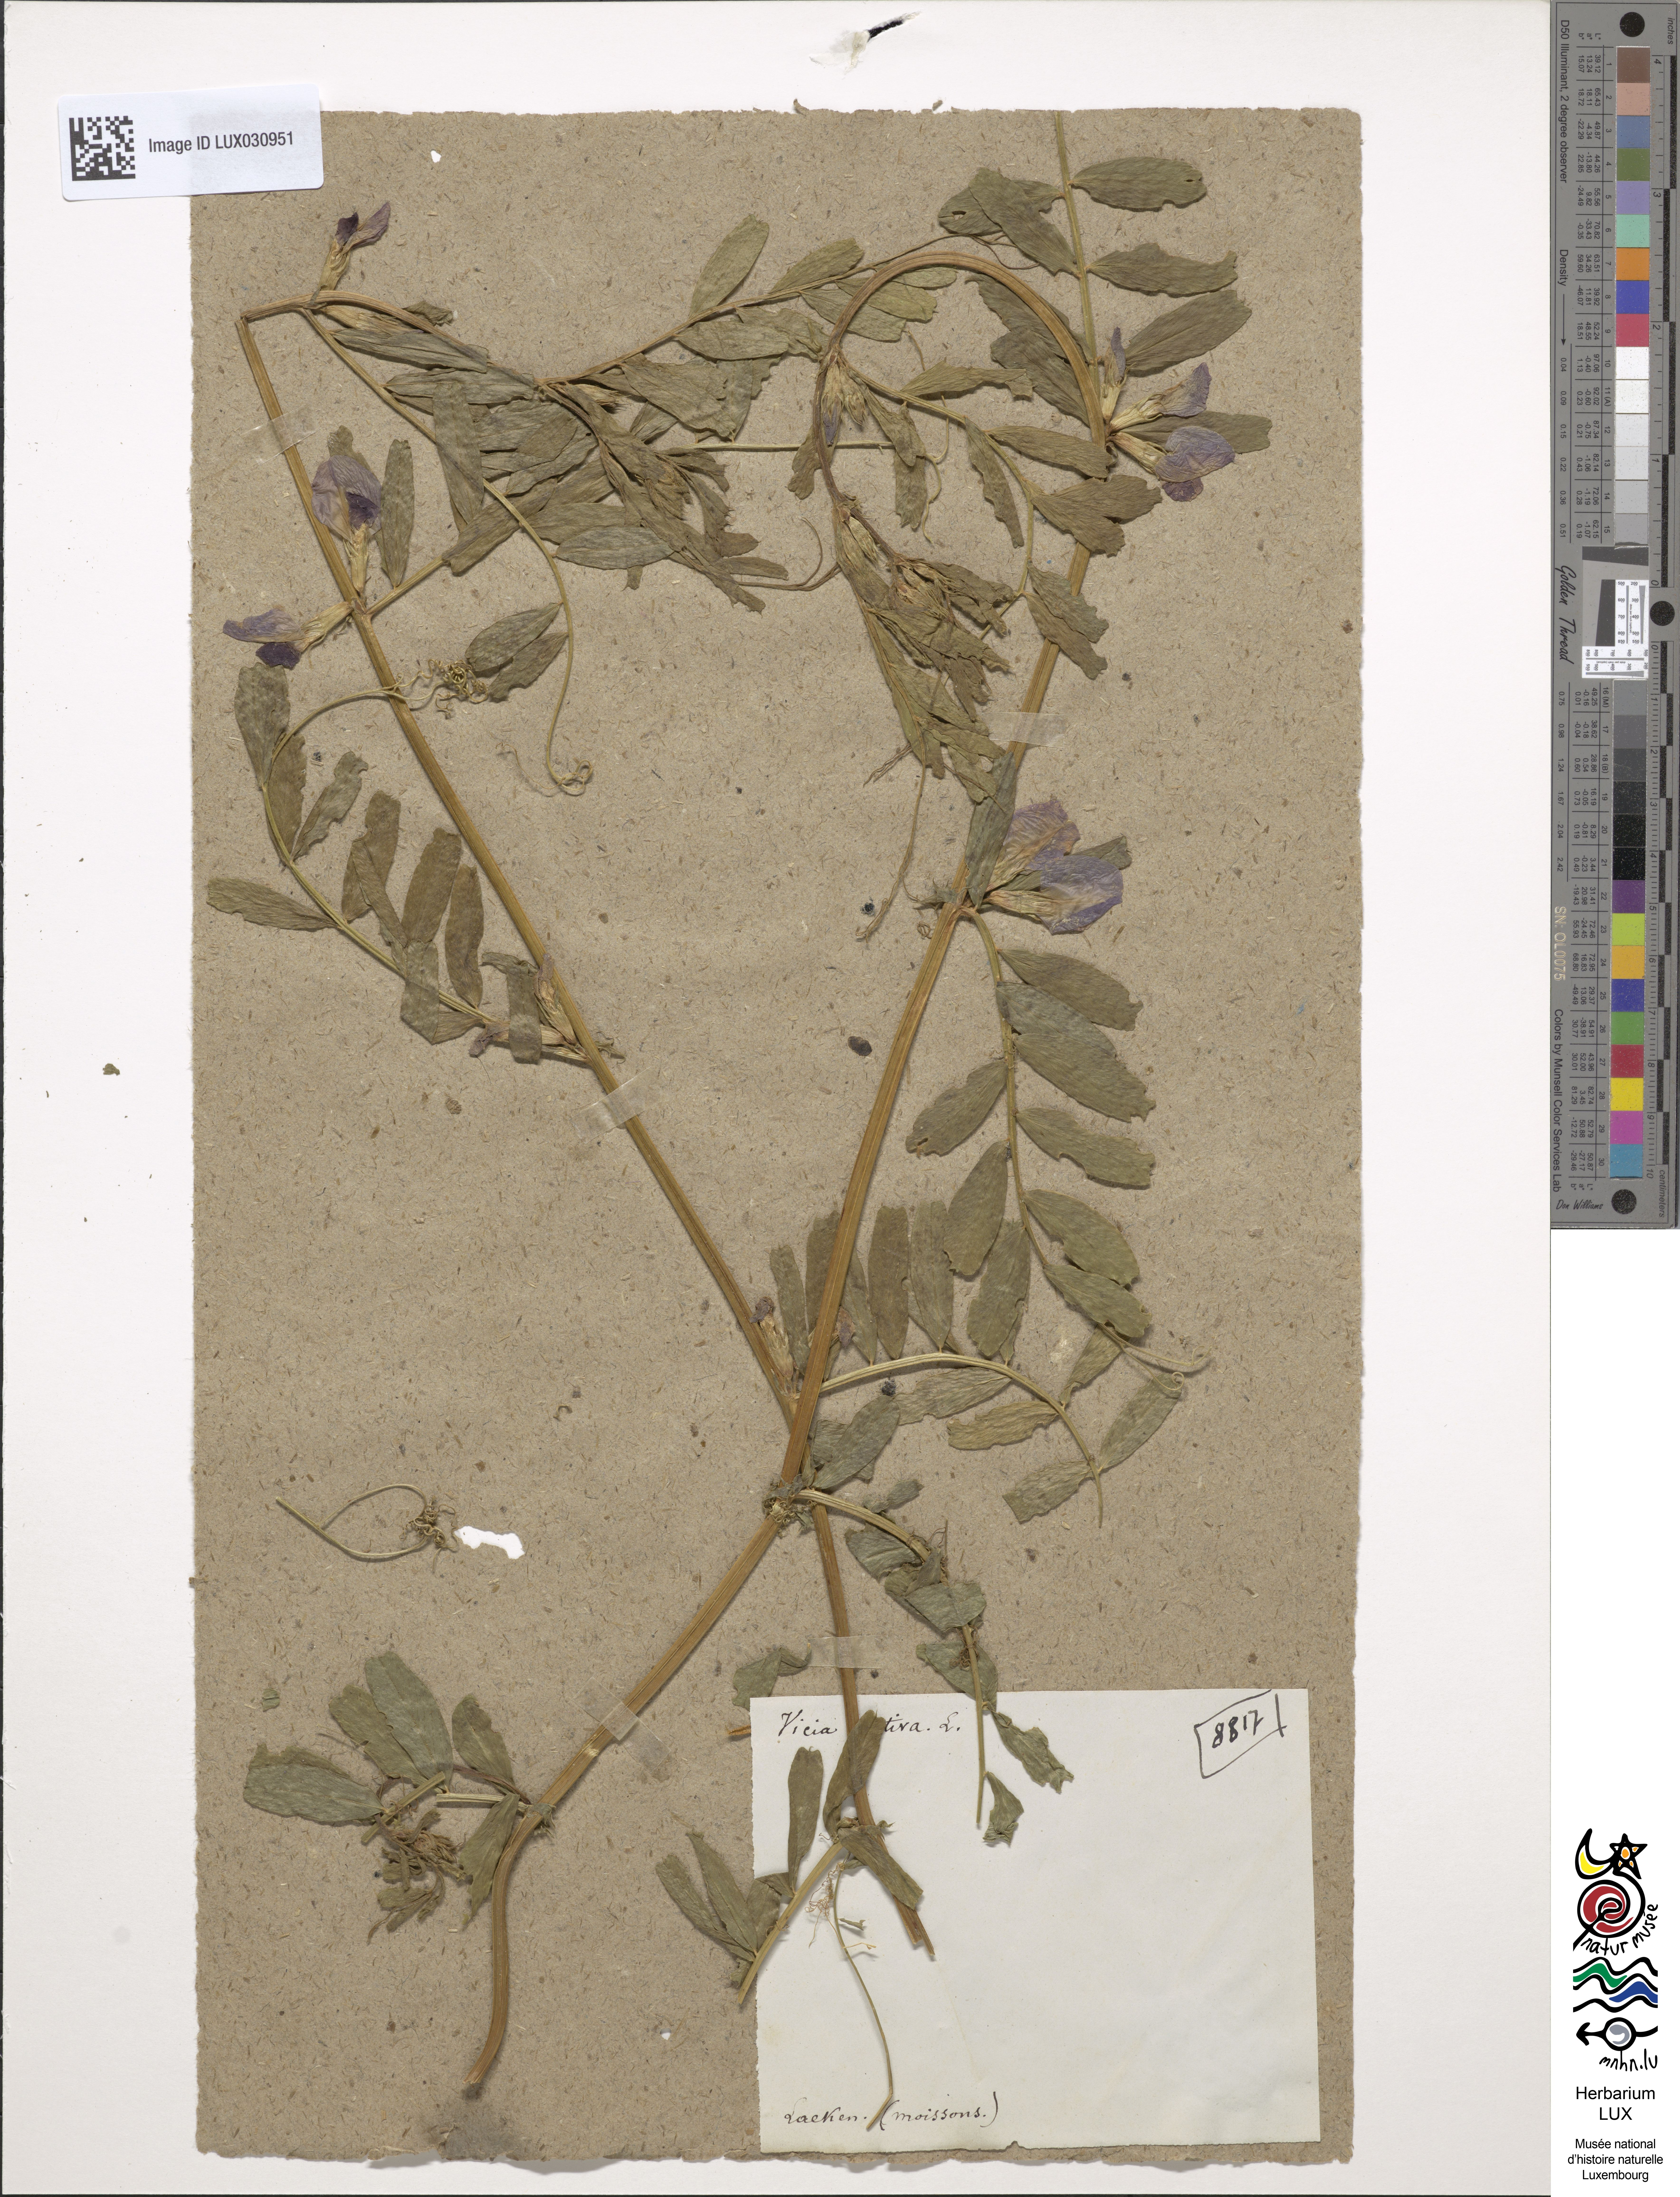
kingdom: Plantae
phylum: Tracheophyta
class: Magnoliopsida
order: Fabales
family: Fabaceae
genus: Vicia
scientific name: Vicia sativa
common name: Garden vetch
